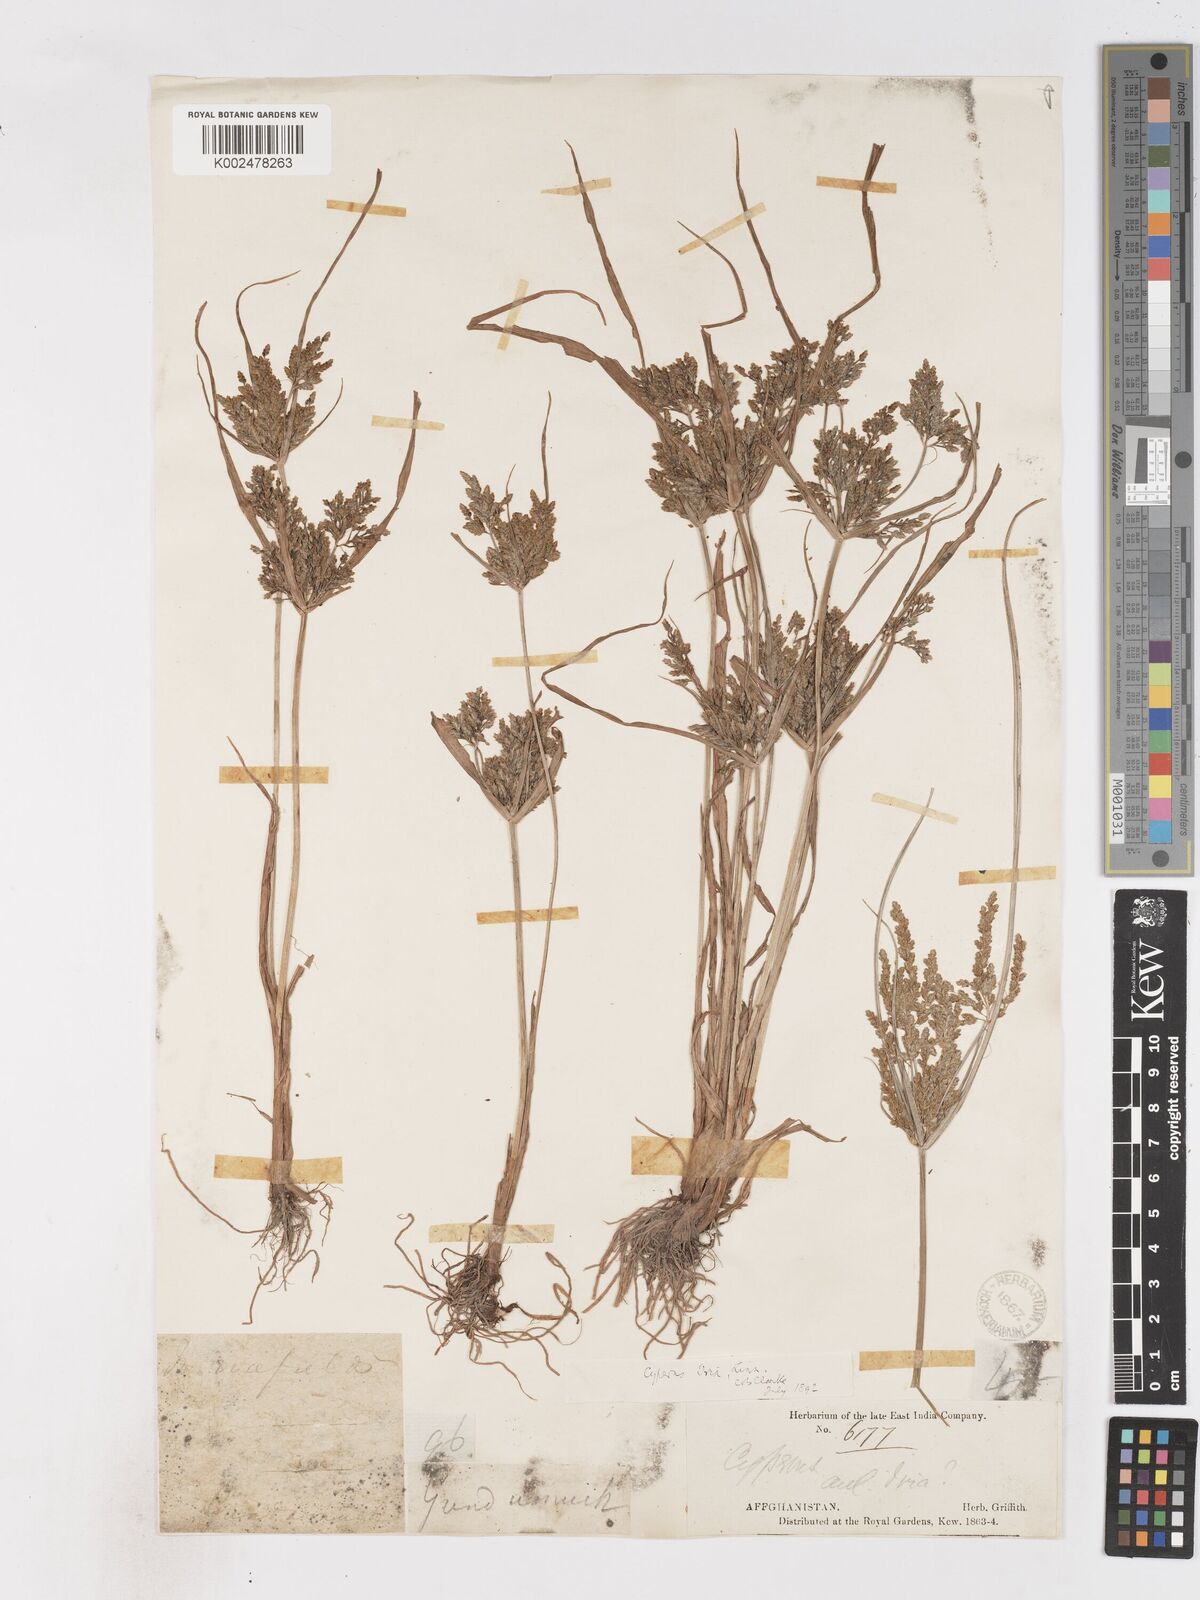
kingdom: Plantae
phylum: Tracheophyta
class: Liliopsida
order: Poales
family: Cyperaceae
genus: Cyperus
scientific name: Cyperus iria
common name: Ricefield flatsedge
